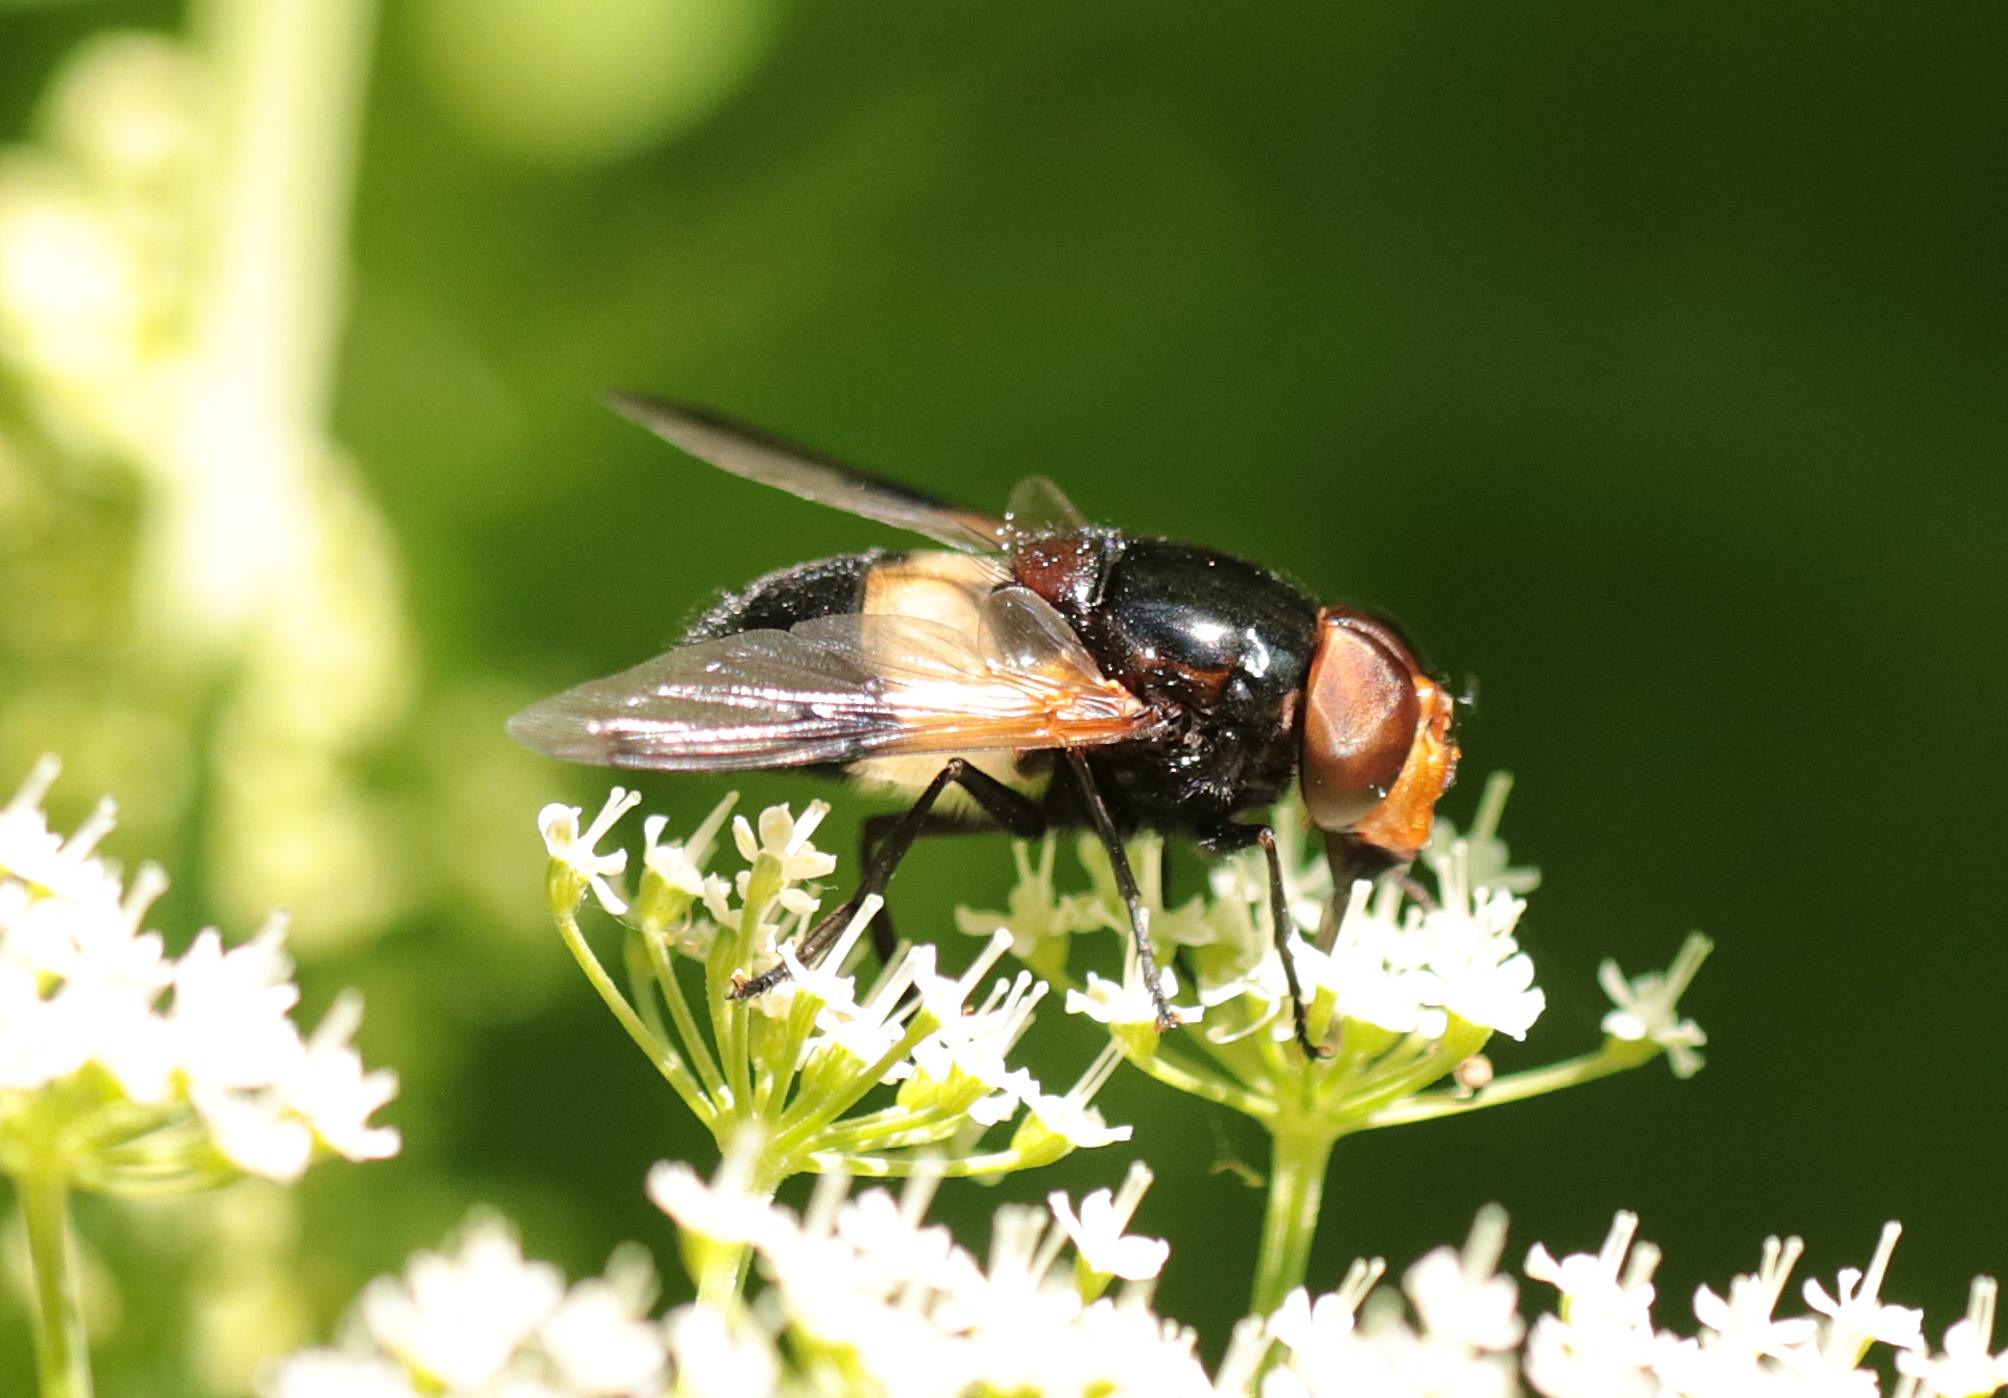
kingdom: Animalia
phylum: Arthropoda
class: Insecta
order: Diptera
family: Syrphidae
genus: Volucella
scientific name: Volucella pellucens
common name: Hvidbåndet humlesvirreflue
